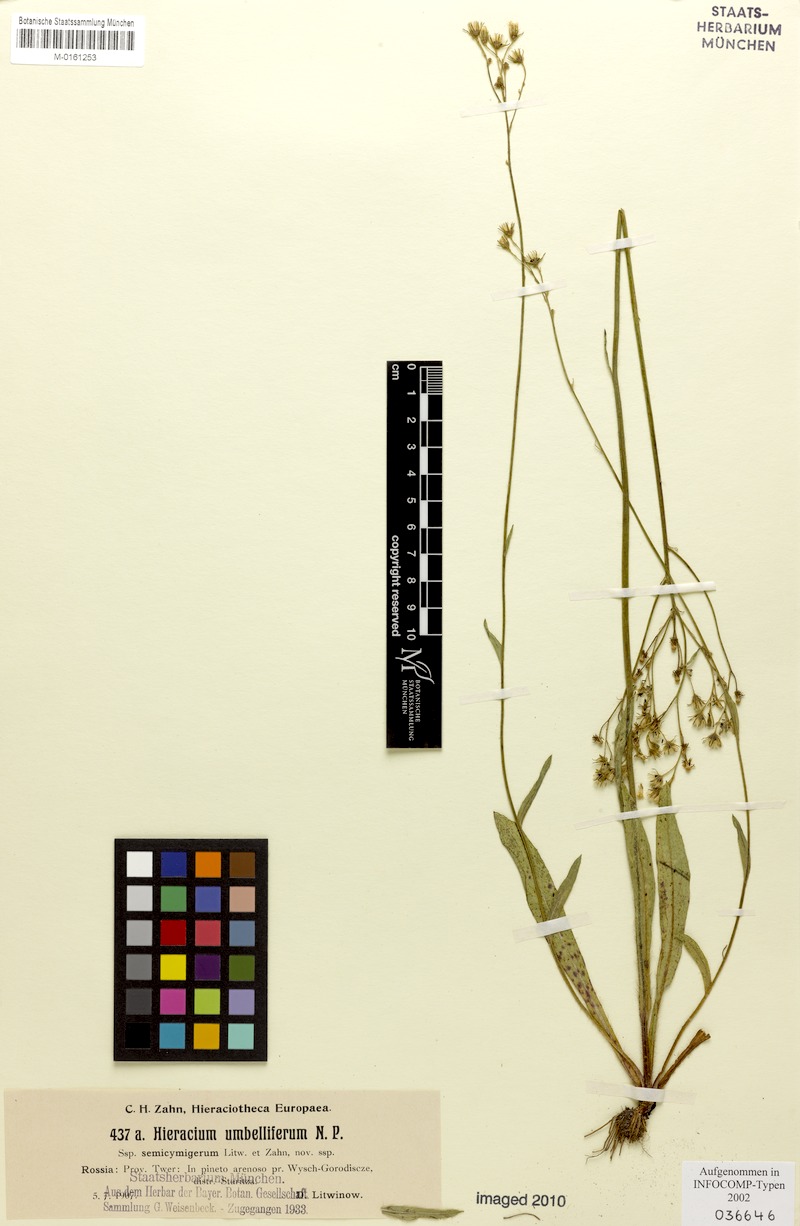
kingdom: Plantae
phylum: Tracheophyta
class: Magnoliopsida
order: Asterales
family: Asteraceae
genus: Pilosella
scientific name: Pilosella densiflora
